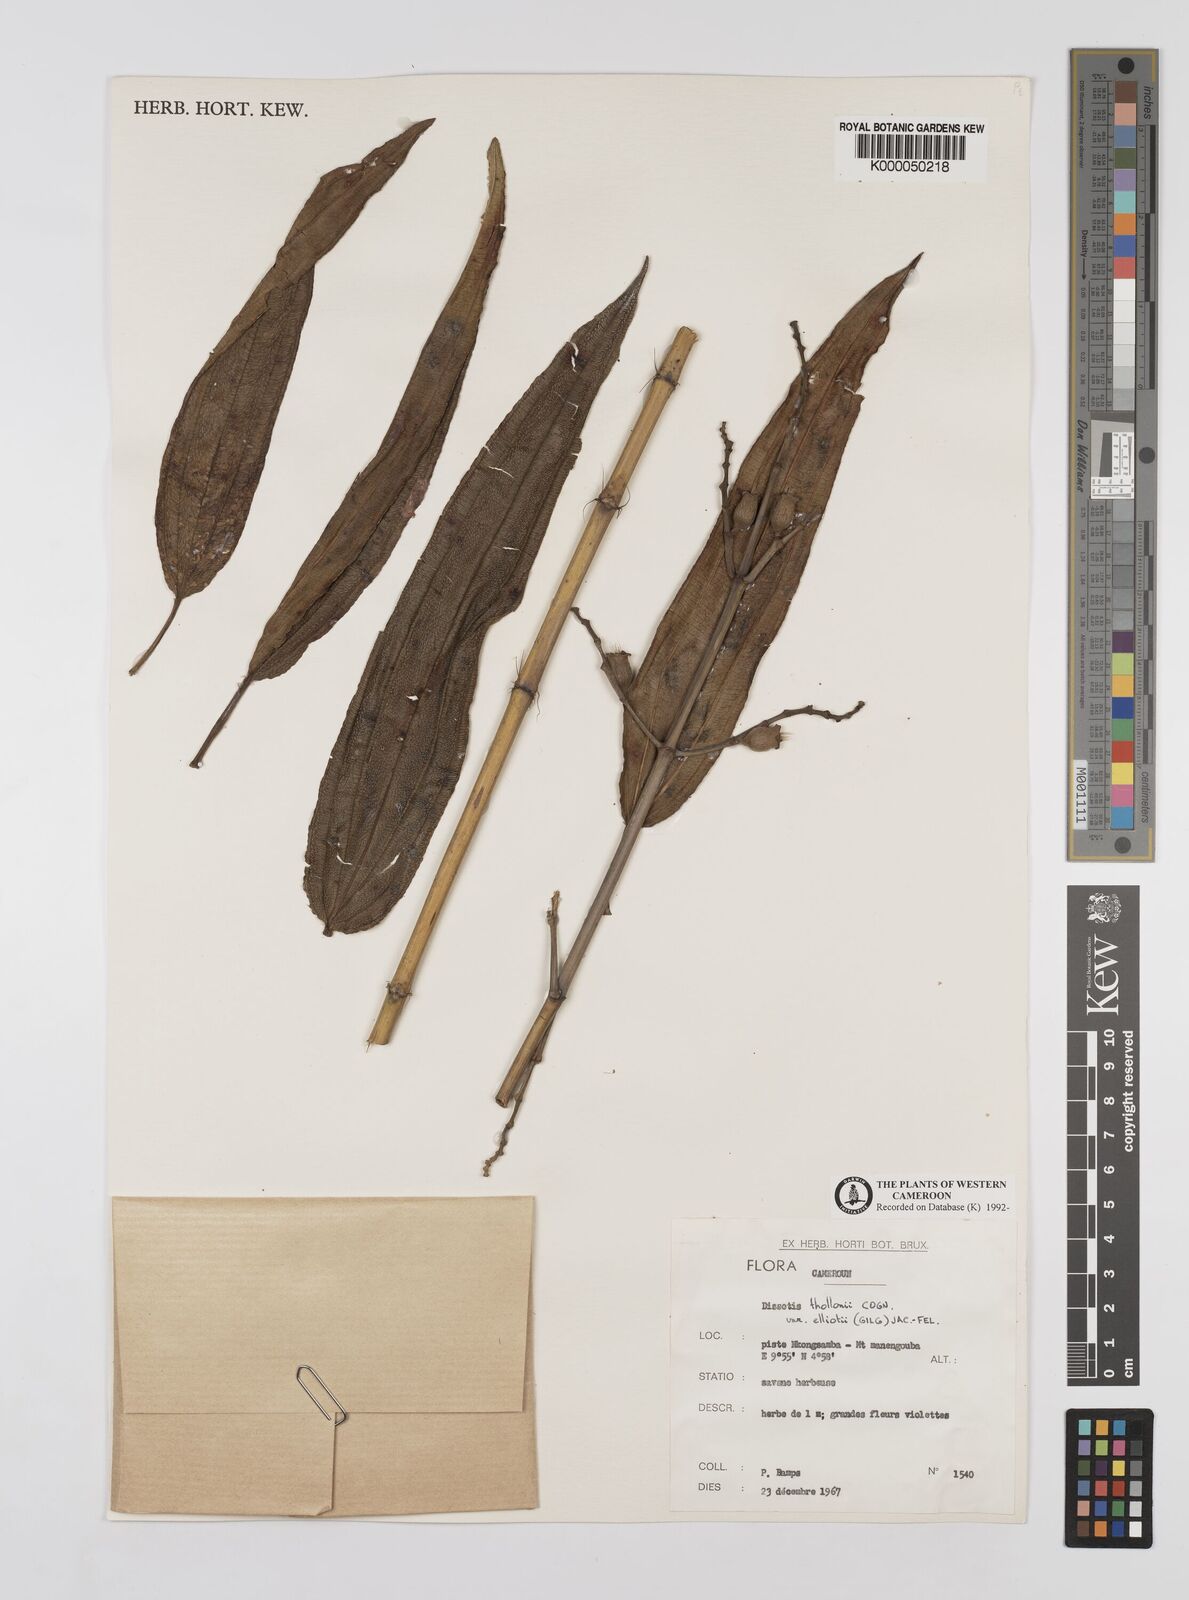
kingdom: Plantae
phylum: Tracheophyta
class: Magnoliopsida
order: Myrtales
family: Melastomataceae
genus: Dissotis
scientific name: Dissotis
